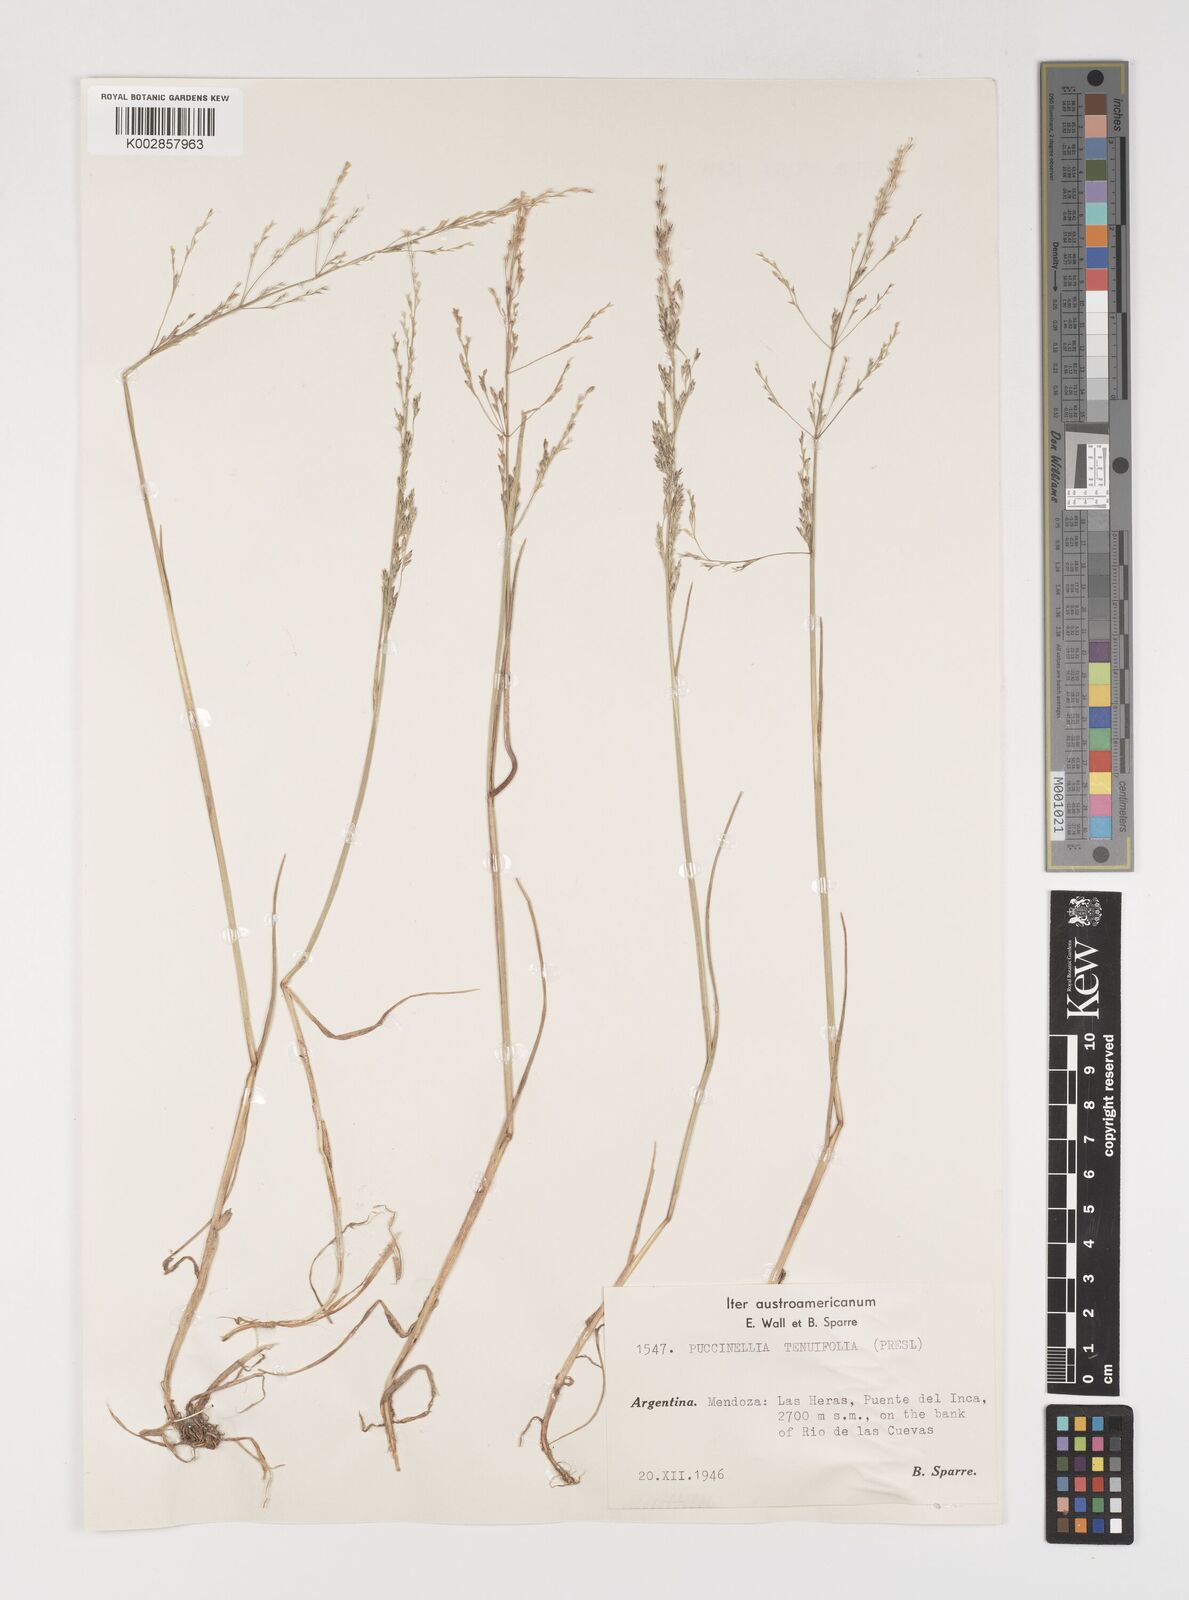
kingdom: Plantae
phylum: Tracheophyta
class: Liliopsida
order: Poales
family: Poaceae
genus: Puccinellia
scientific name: Puccinellia magellanica
